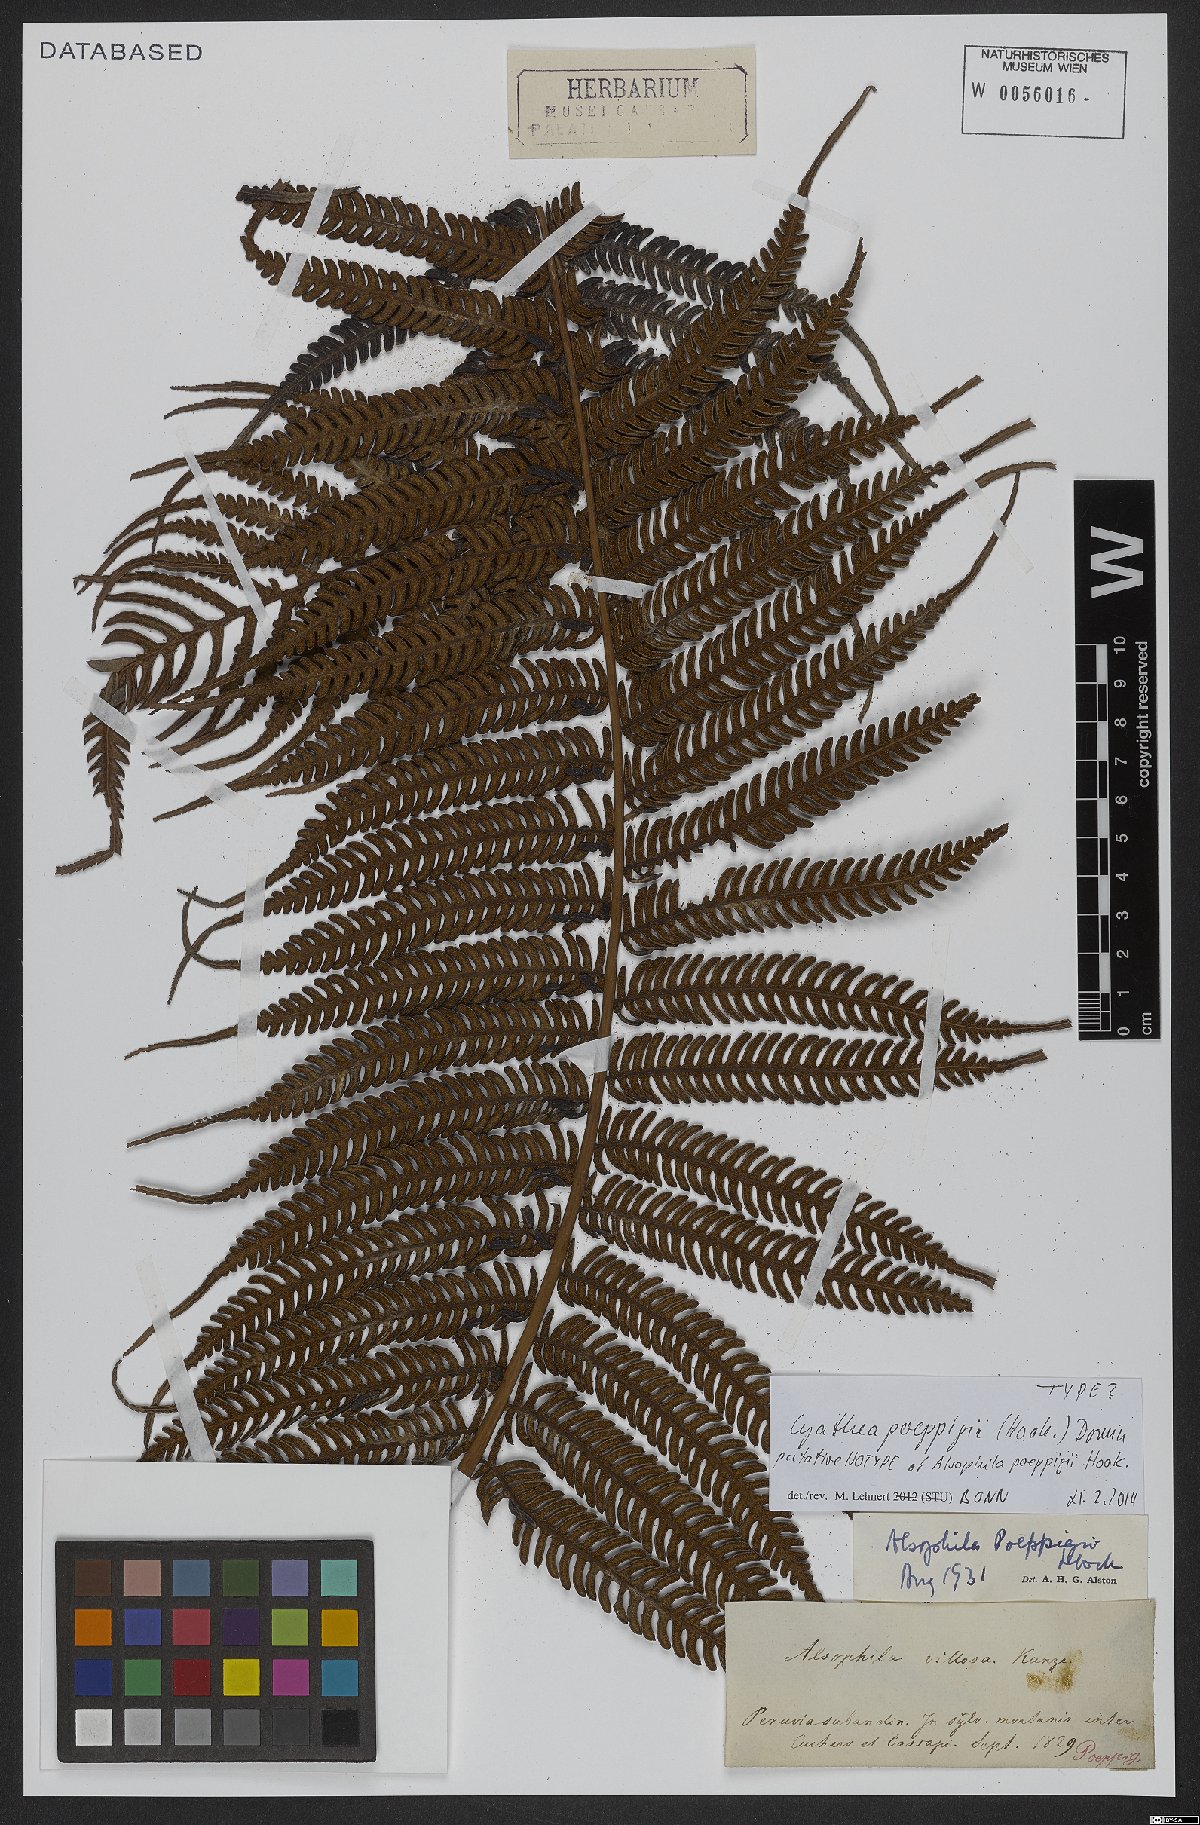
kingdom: Plantae
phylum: Tracheophyta
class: Polypodiopsida
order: Cyatheales
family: Cyatheaceae
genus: Cyathea
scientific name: Cyathea poeppigii
